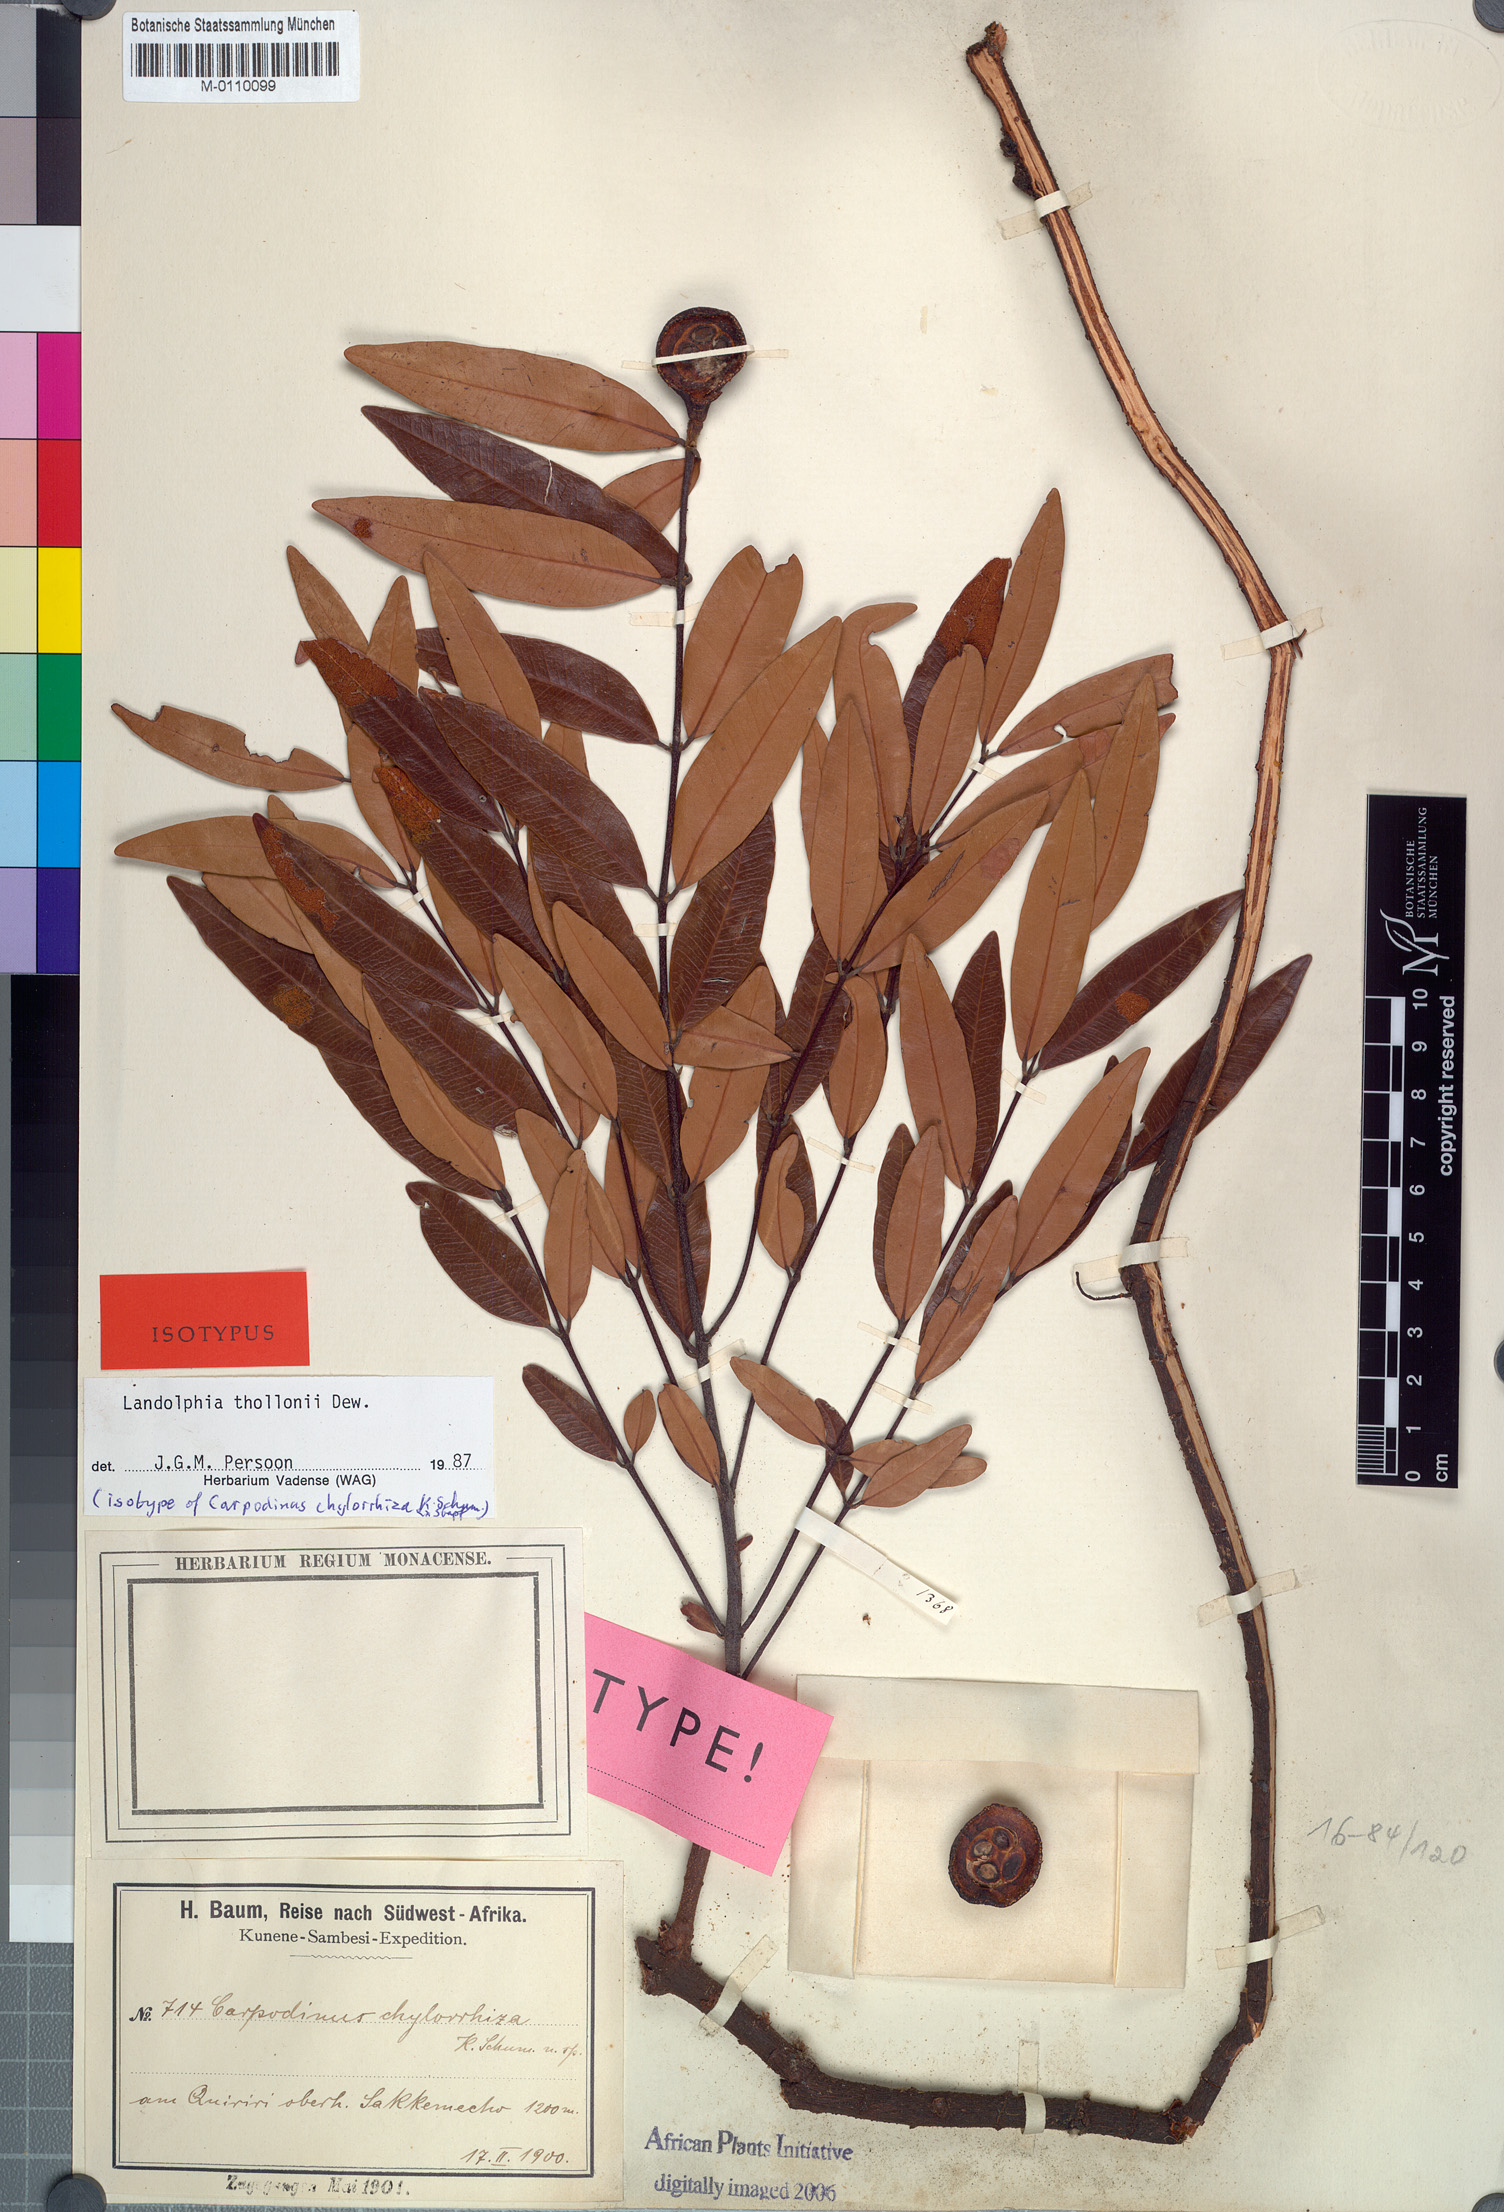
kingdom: Plantae
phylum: Tracheophyta
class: Magnoliopsida
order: Gentianales
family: Apocynaceae
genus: Landolphia
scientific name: Landolphia thollonii
